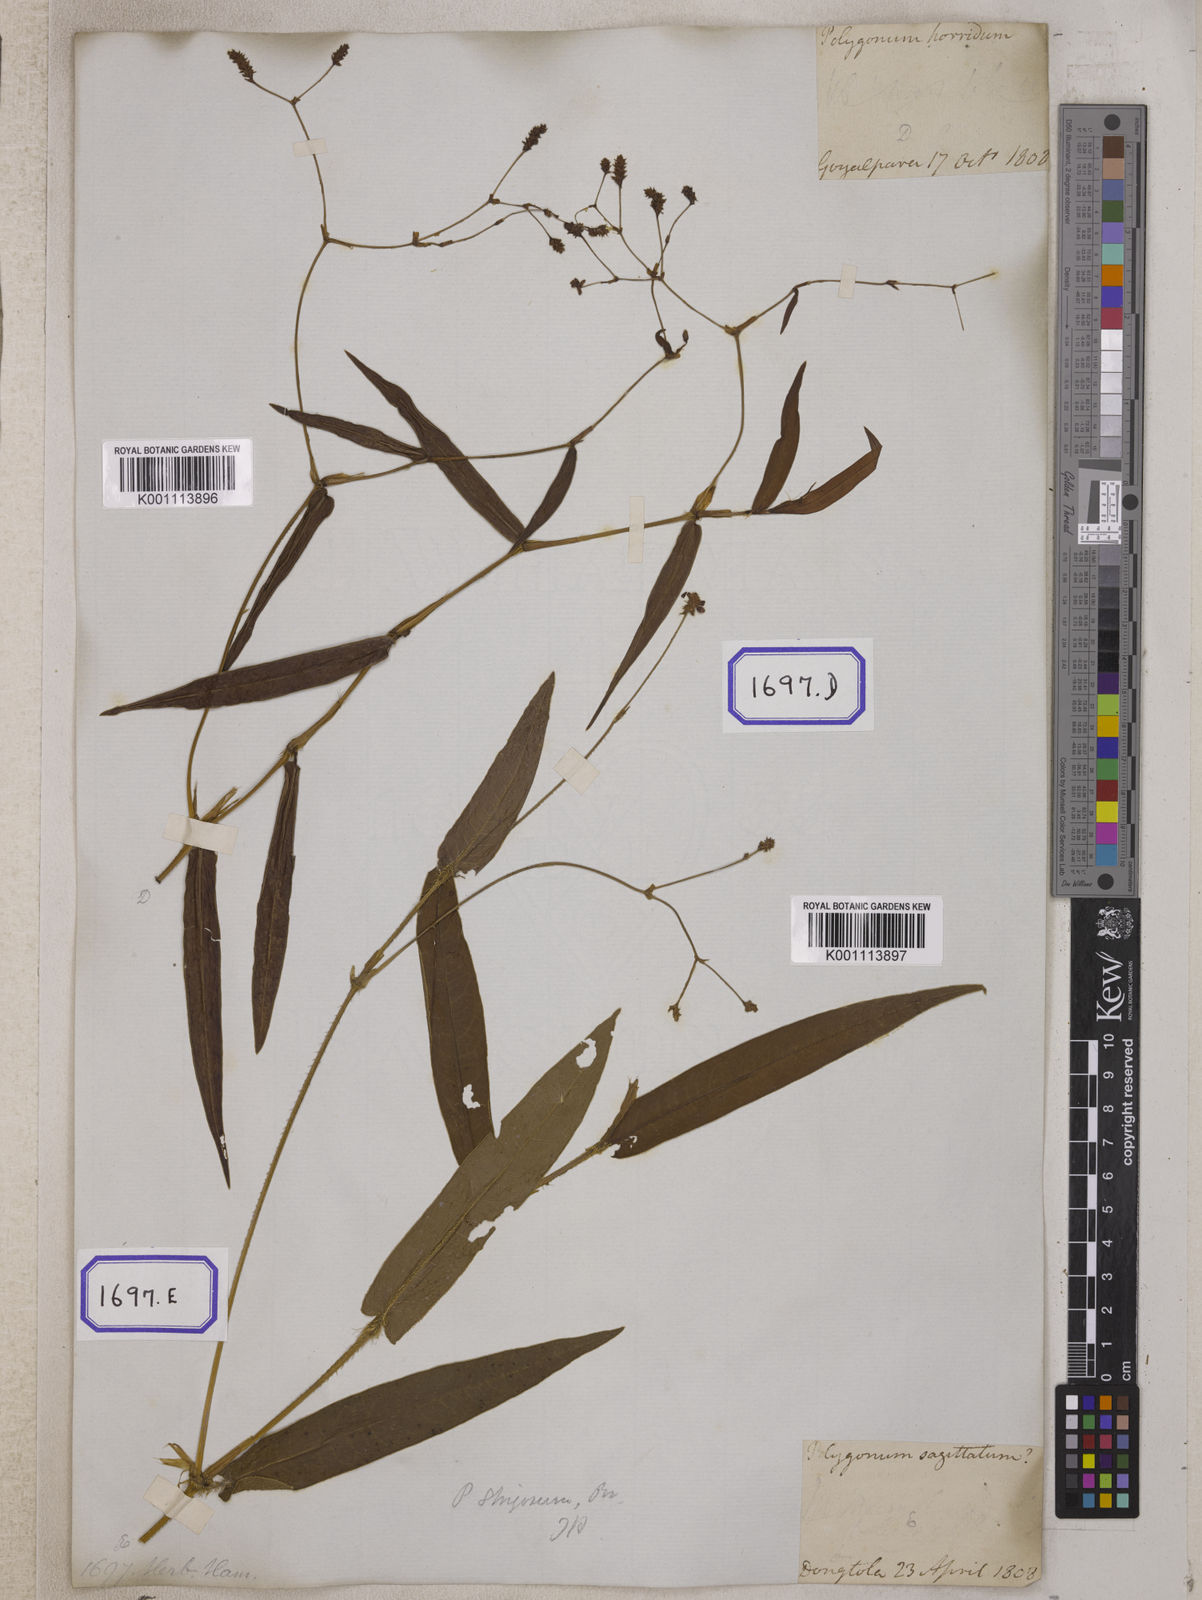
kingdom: Plantae
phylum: Tracheophyta
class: Magnoliopsida
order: Caryophyllales
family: Polygonaceae
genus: Persicaria
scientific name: Persicaria muricata
